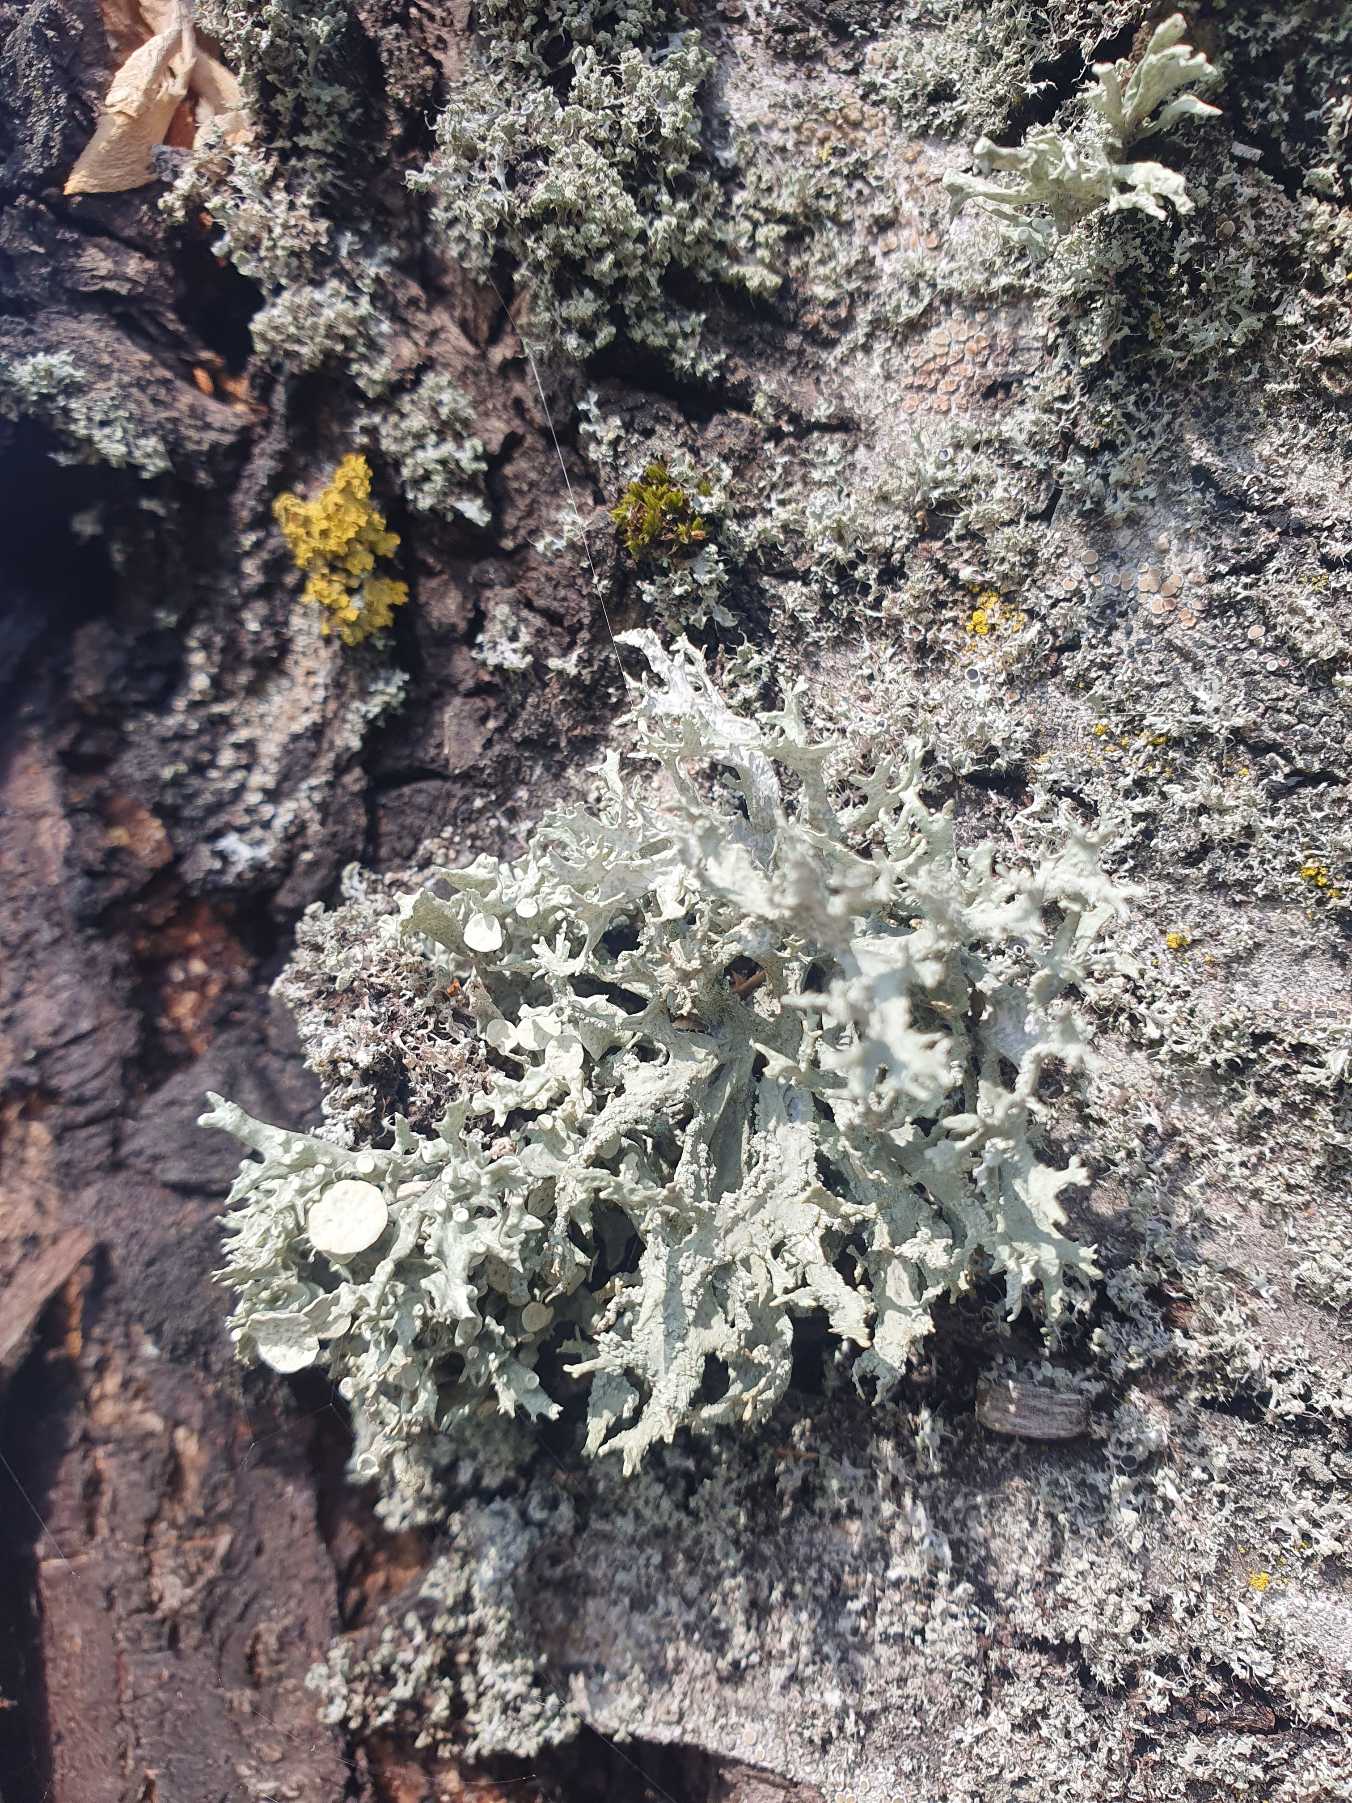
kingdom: Fungi
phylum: Ascomycota
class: Lecanoromycetes
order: Lecanorales
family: Ramalinaceae
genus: Ramalina
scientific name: Ramalina fastigiata
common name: Tue-grenlav
